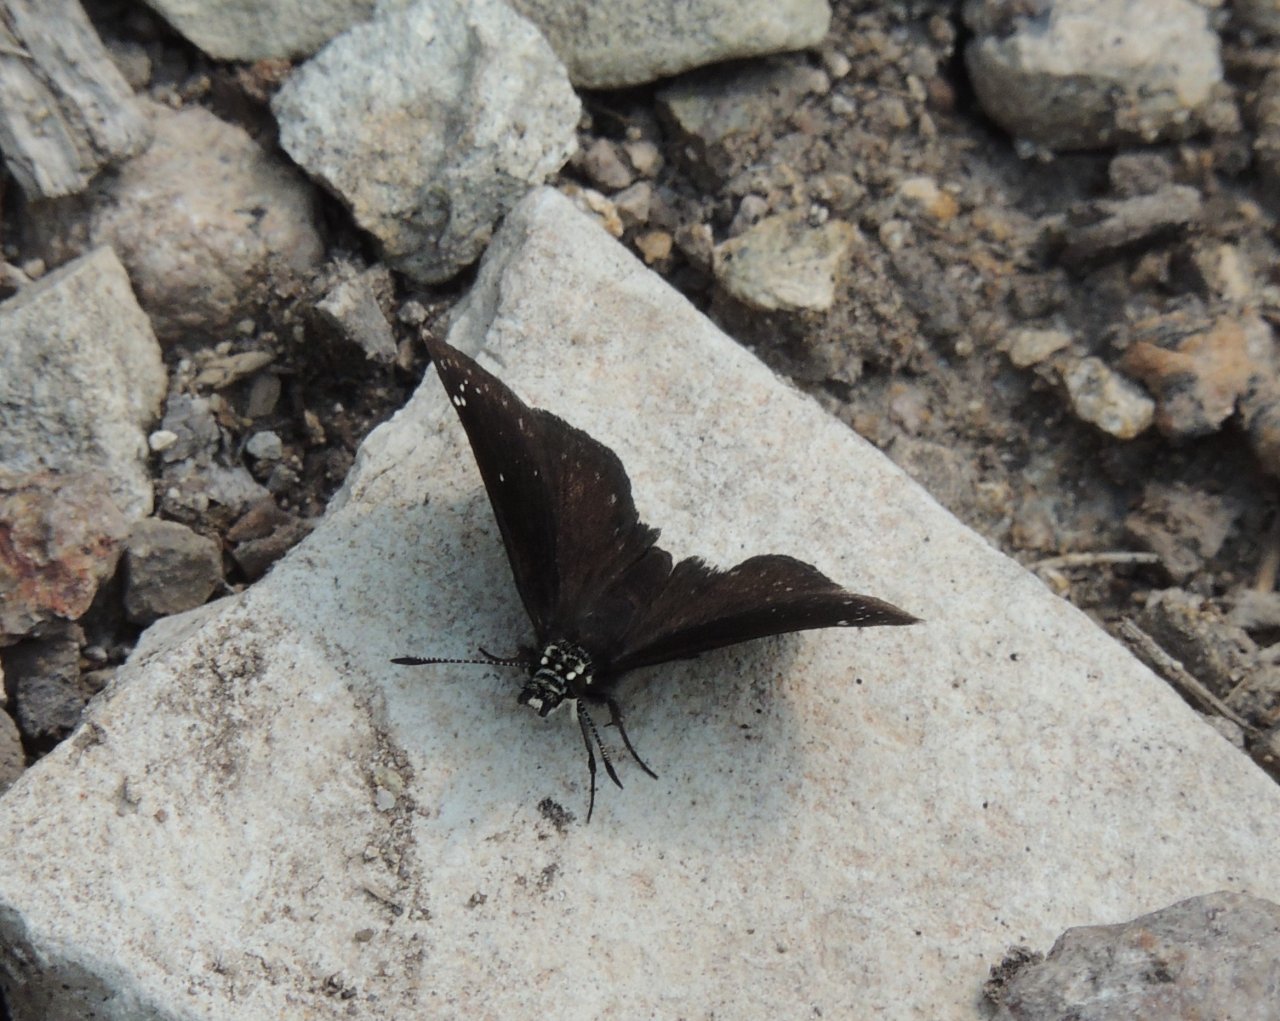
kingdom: Animalia
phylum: Arthropoda
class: Insecta
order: Lepidoptera
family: Hesperiidae
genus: Pholisora
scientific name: Pholisora catullus
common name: Common Sootywing
